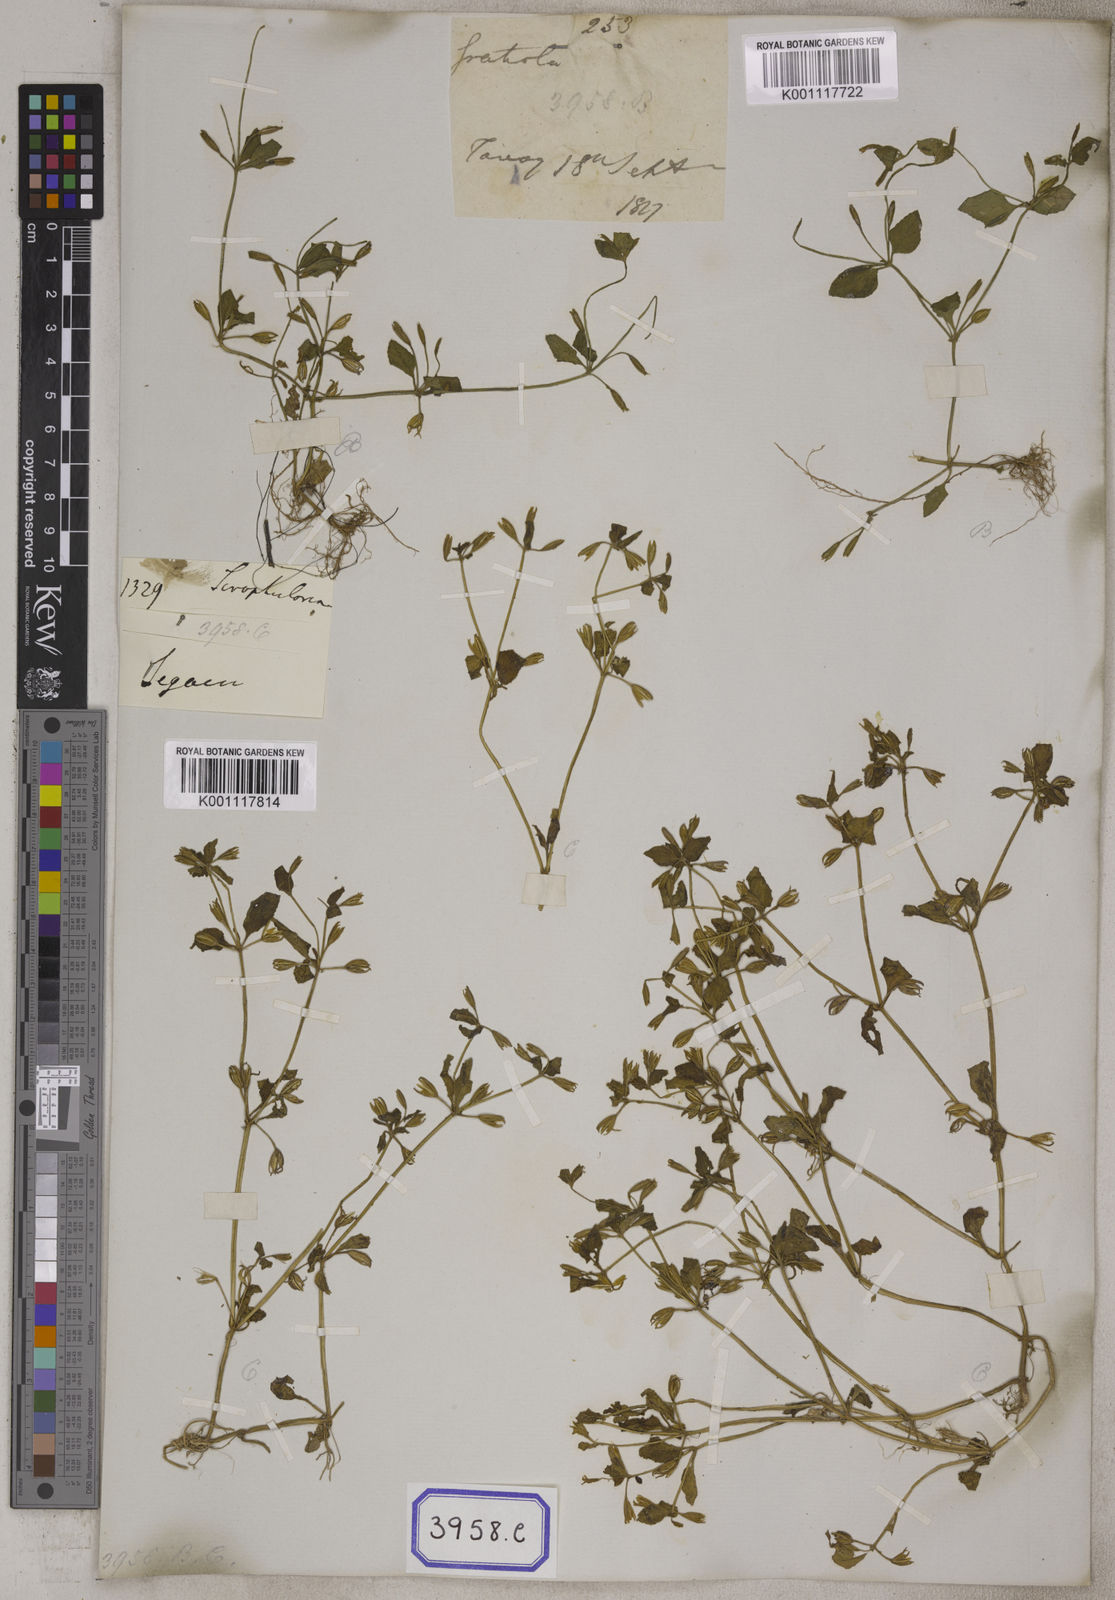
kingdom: Plantae
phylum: Tracheophyta
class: Magnoliopsida
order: Lamiales
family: Linderniaceae
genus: Torenia
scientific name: Torenia
